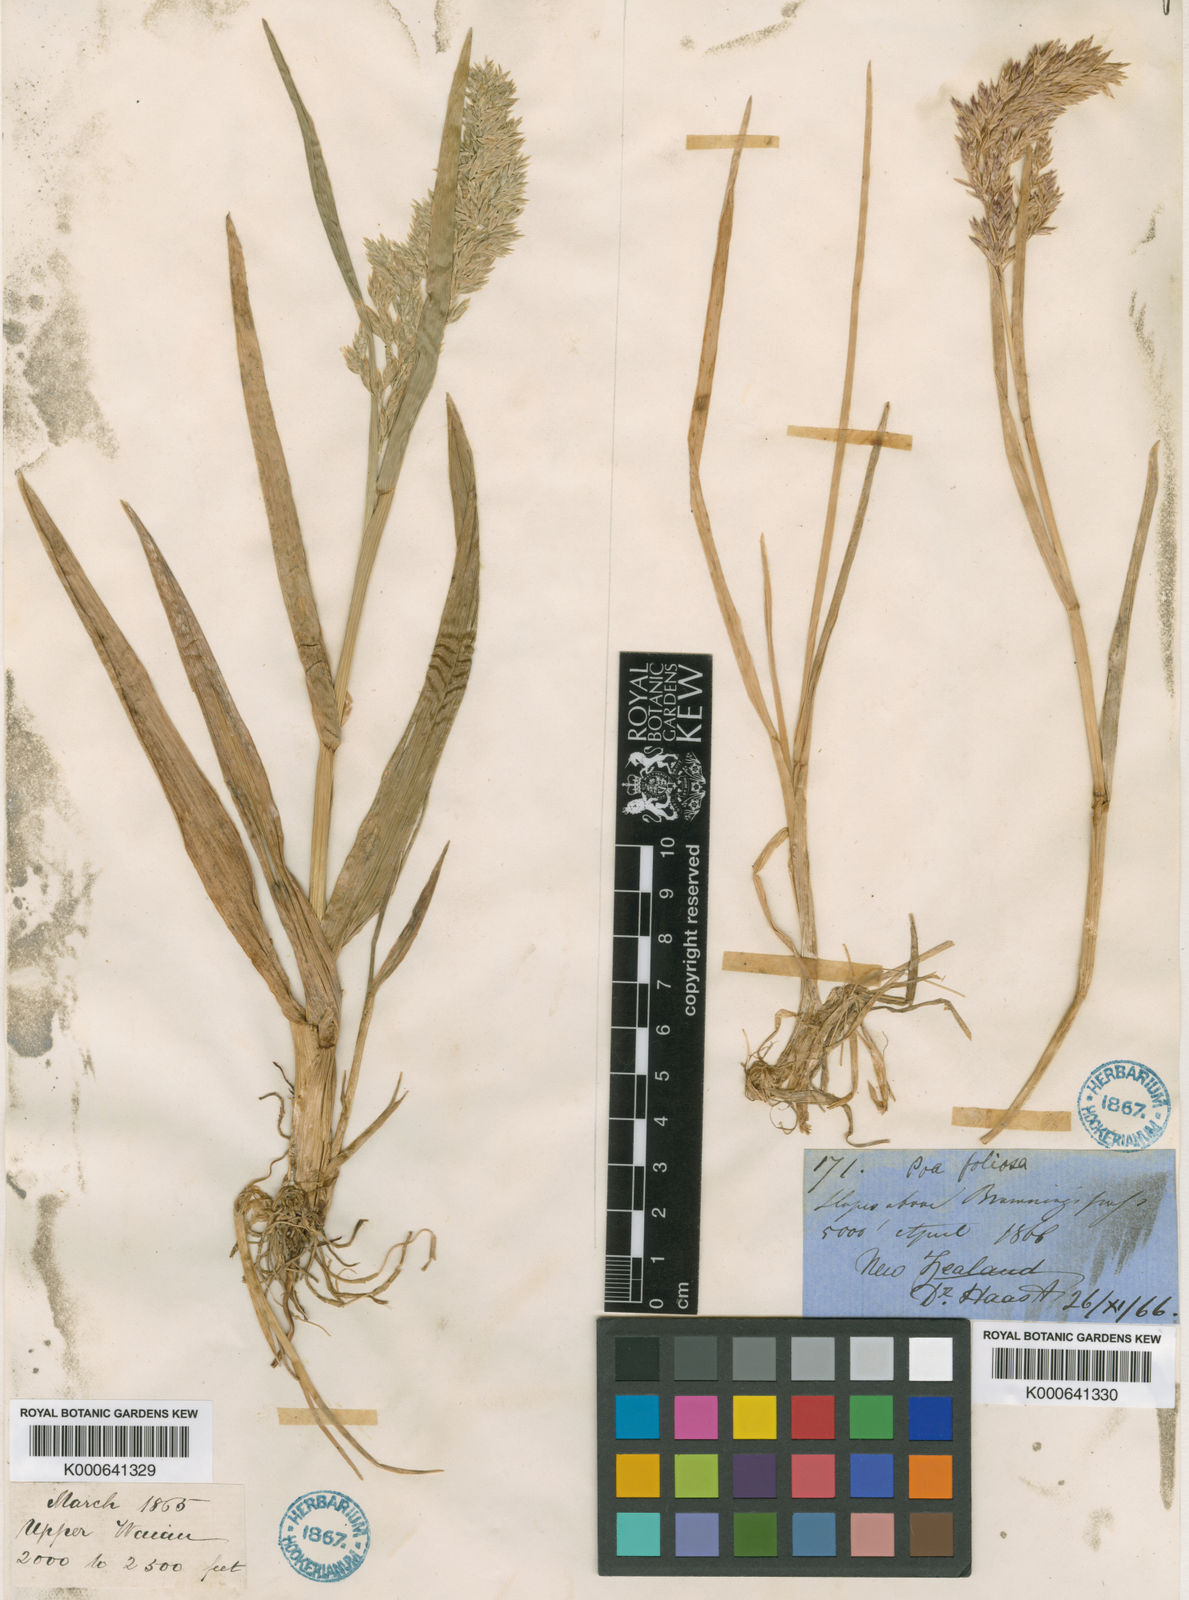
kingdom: Plantae
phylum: Tracheophyta
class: Liliopsida
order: Poales
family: Poaceae
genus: Poa
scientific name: Poa novae-zelandiae
